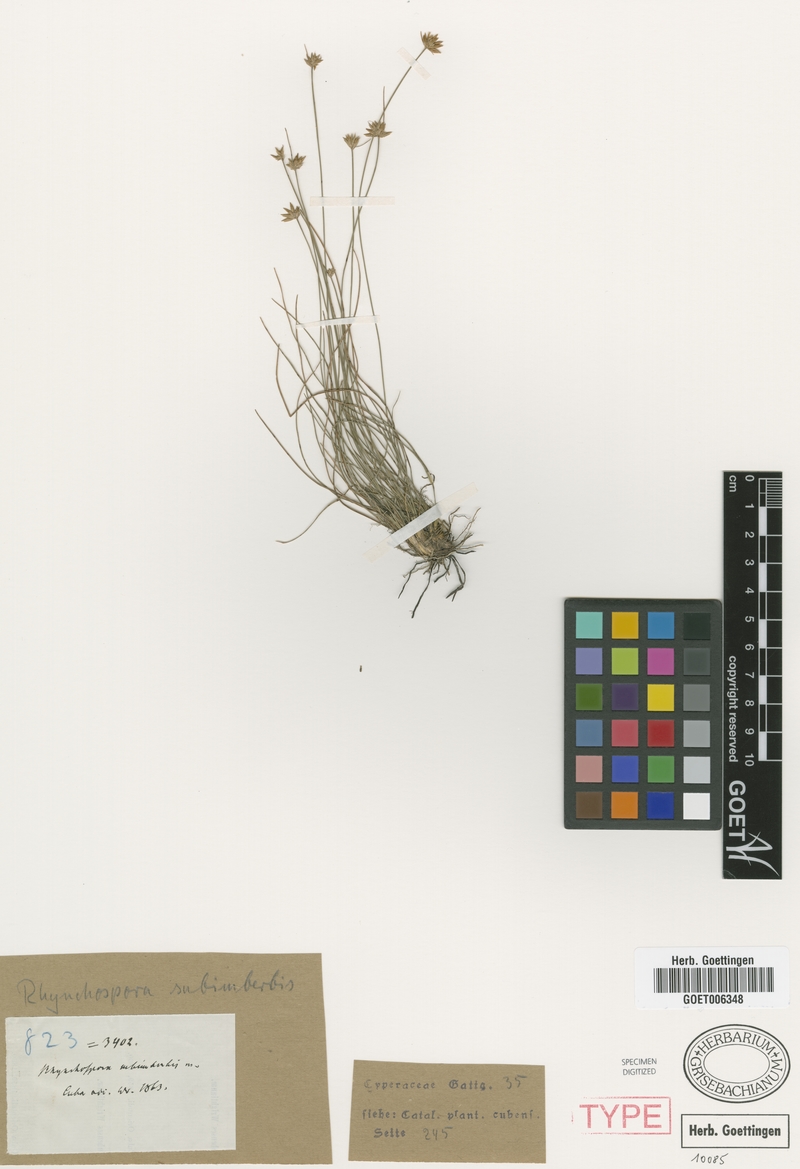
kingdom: Plantae
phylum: Tracheophyta
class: Liliopsida
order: Poales
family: Cyperaceae
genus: Rhynchospora
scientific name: Rhynchospora subimberbis
